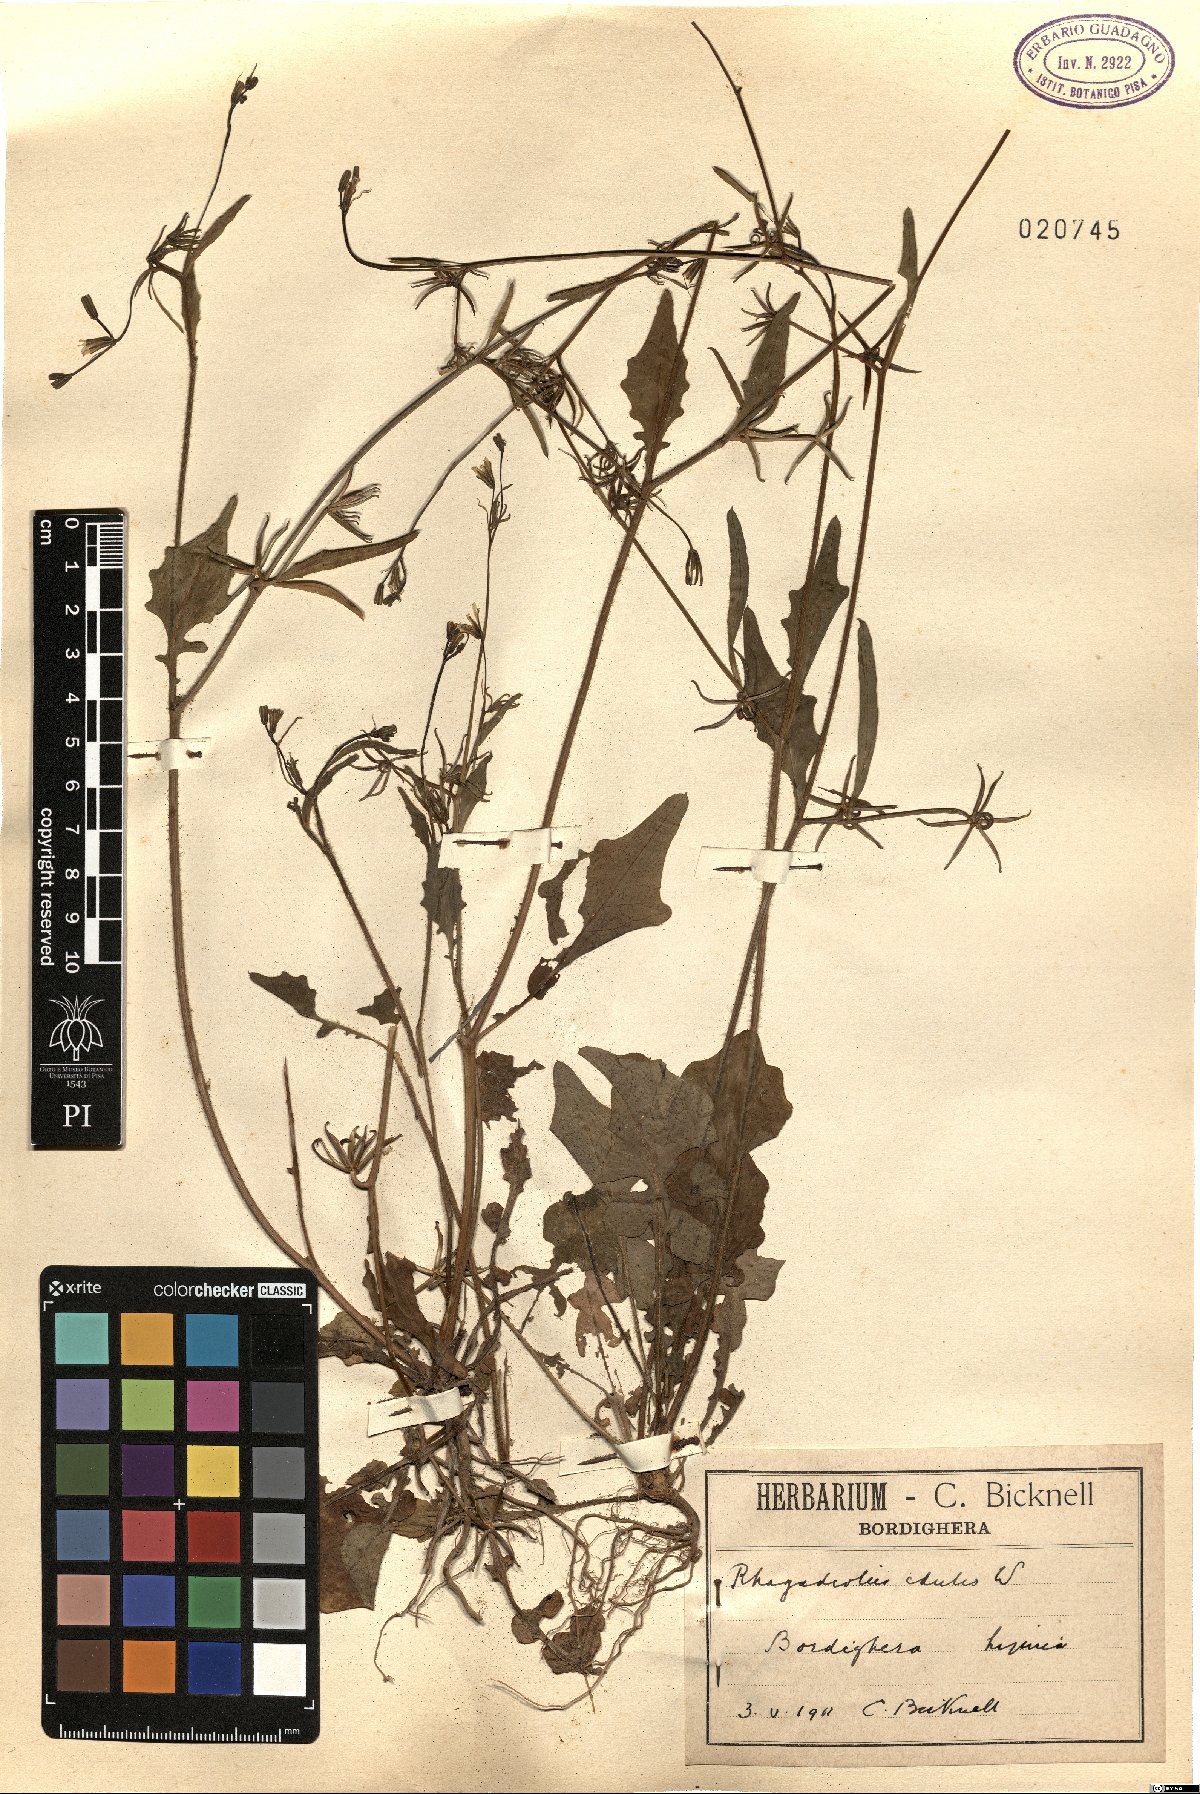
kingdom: Plantae
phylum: Tracheophyta
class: Magnoliopsida
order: Asterales
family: Asteraceae
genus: Rhagadiolus
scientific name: Rhagadiolus edulis
